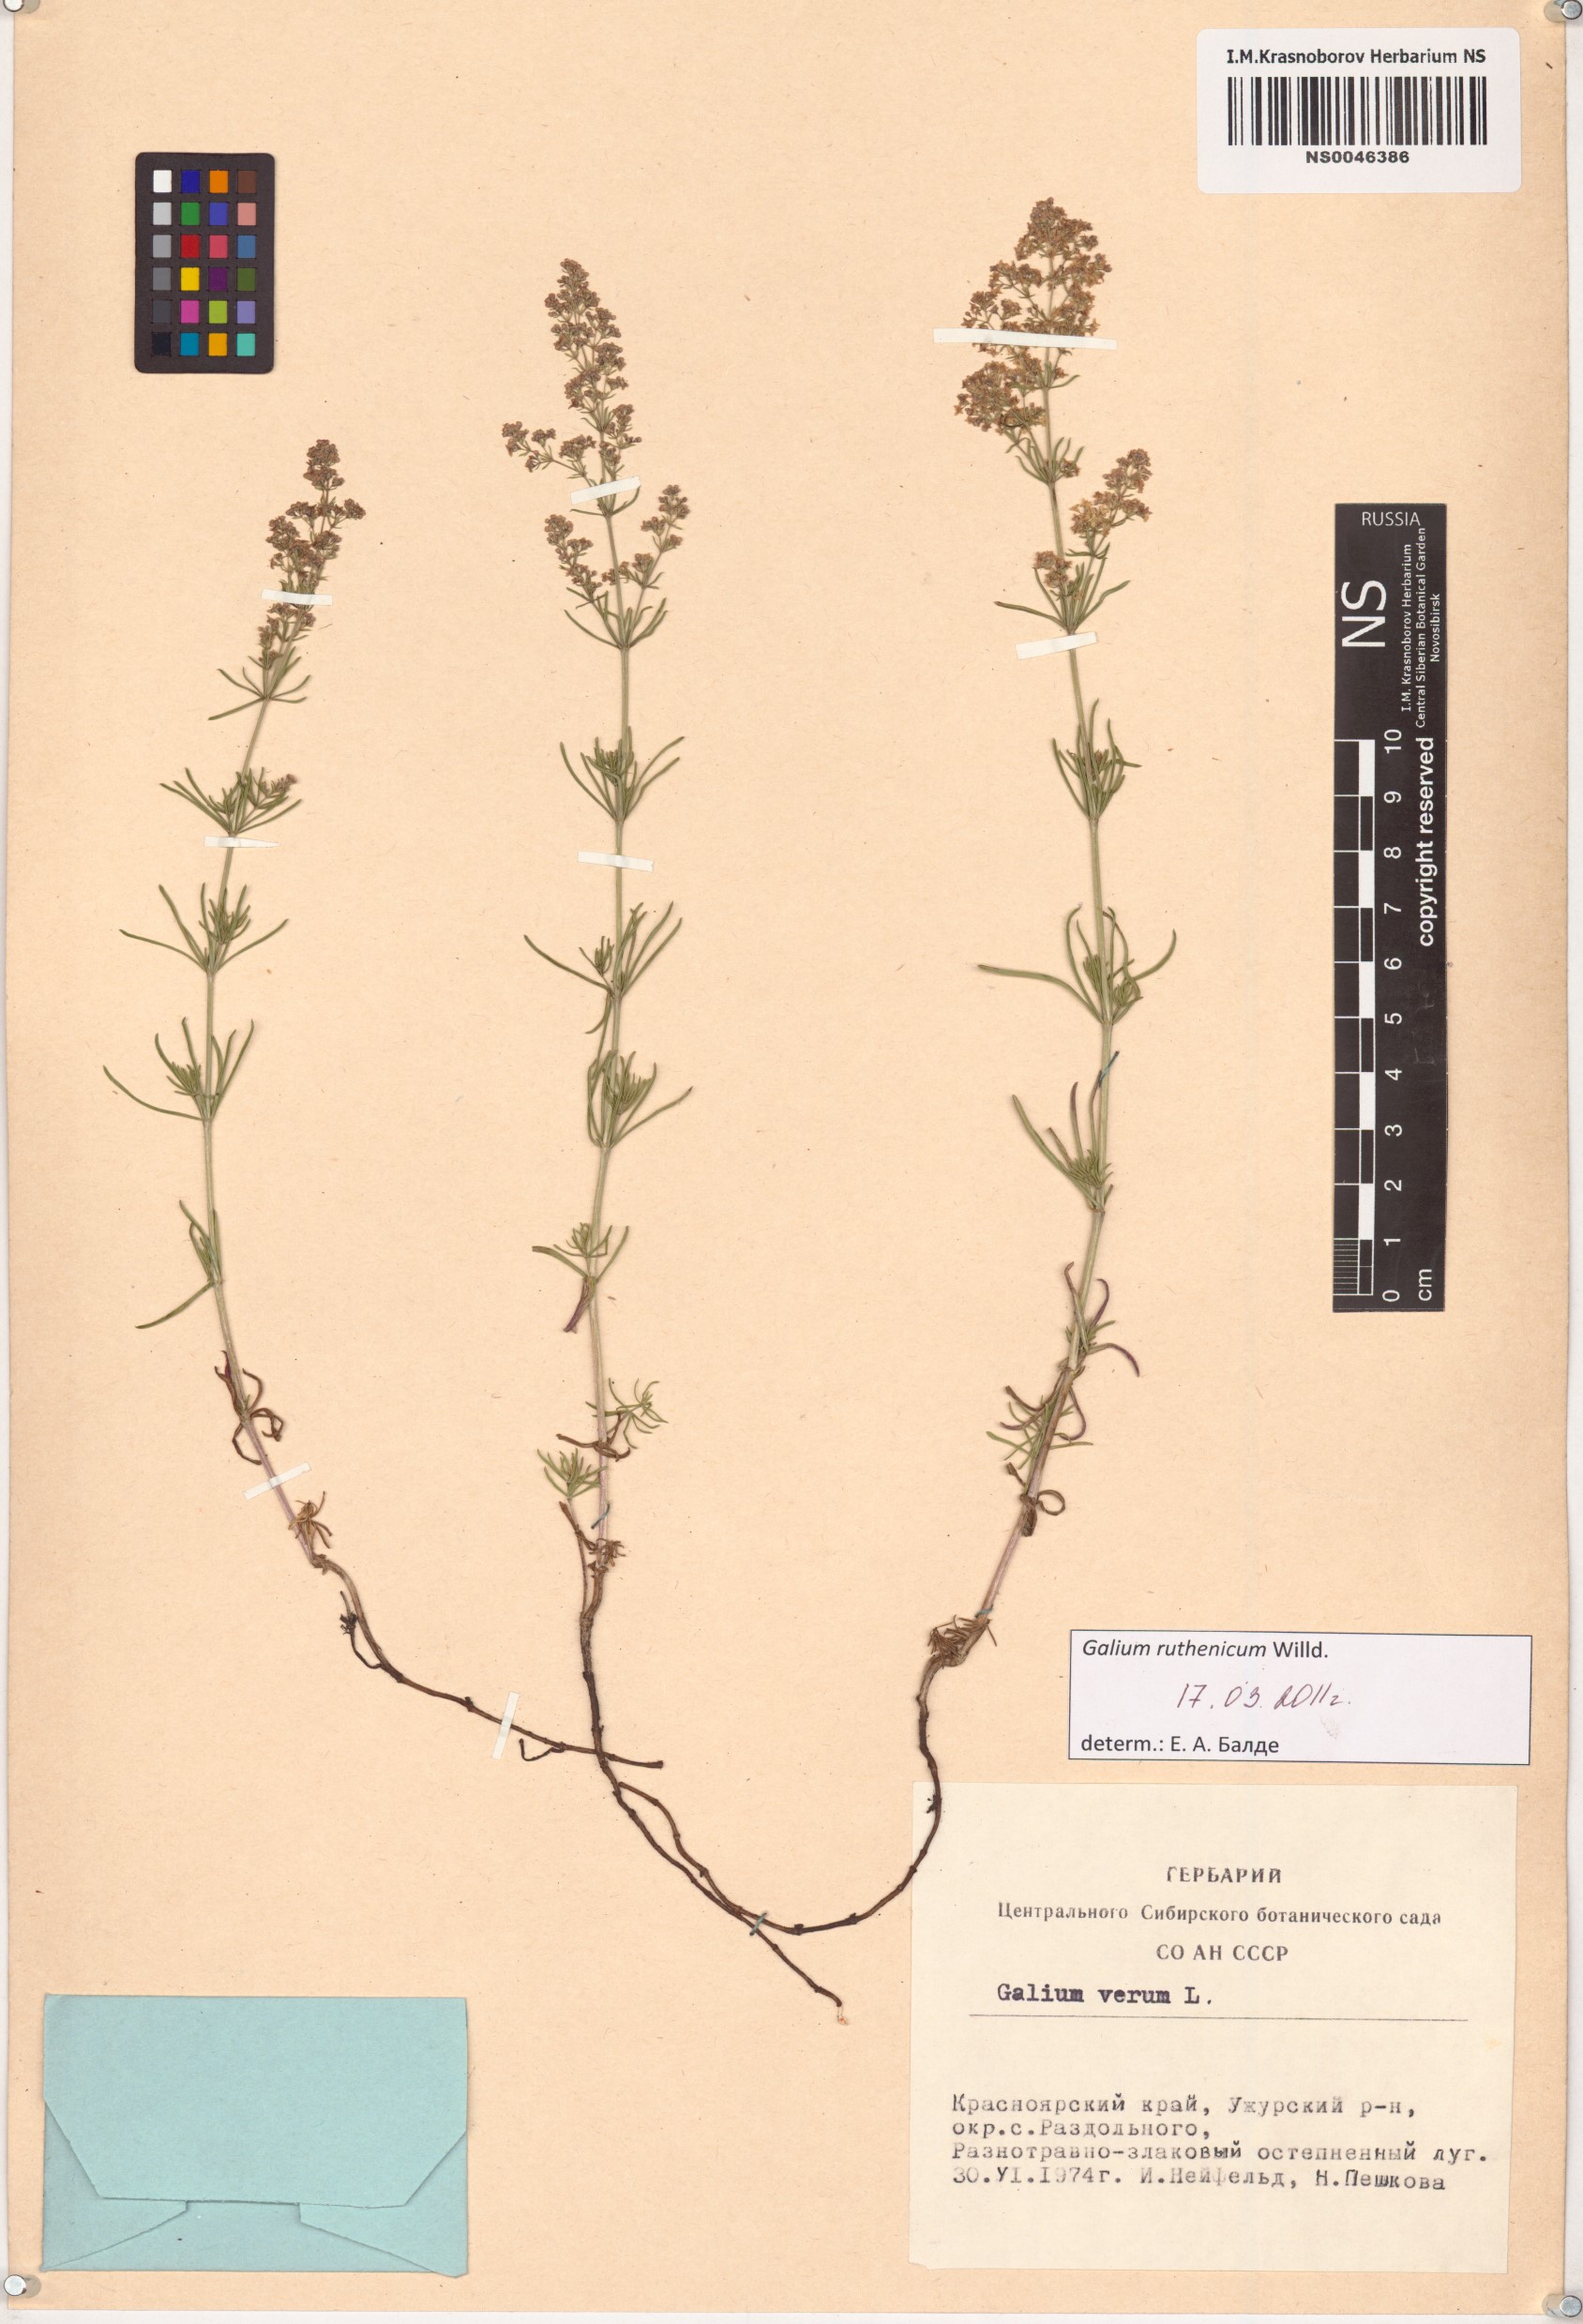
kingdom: Plantae
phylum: Tracheophyta
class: Magnoliopsida
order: Gentianales
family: Rubiaceae
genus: Galium
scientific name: Galium verum
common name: Lady's bedstraw
